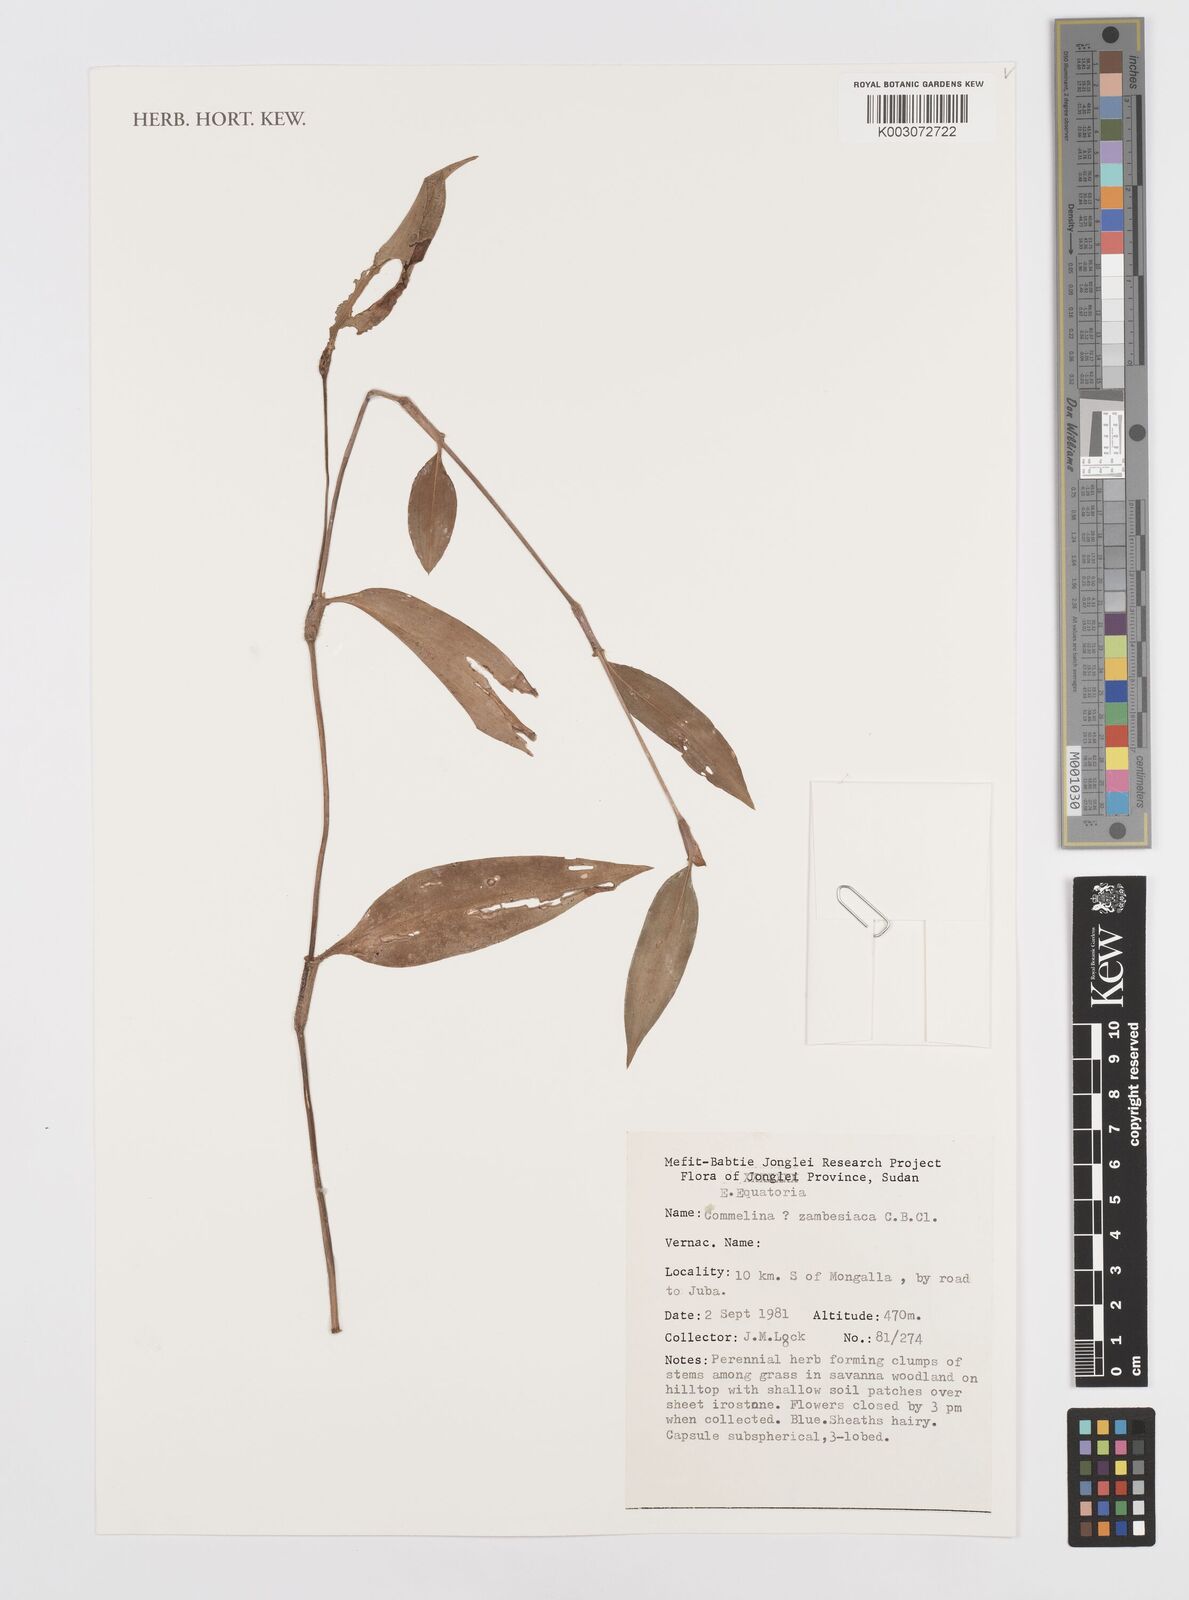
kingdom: Plantae
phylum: Tracheophyta
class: Liliopsida
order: Commelinales
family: Commelinaceae
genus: Commelina
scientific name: Commelina zambesica
